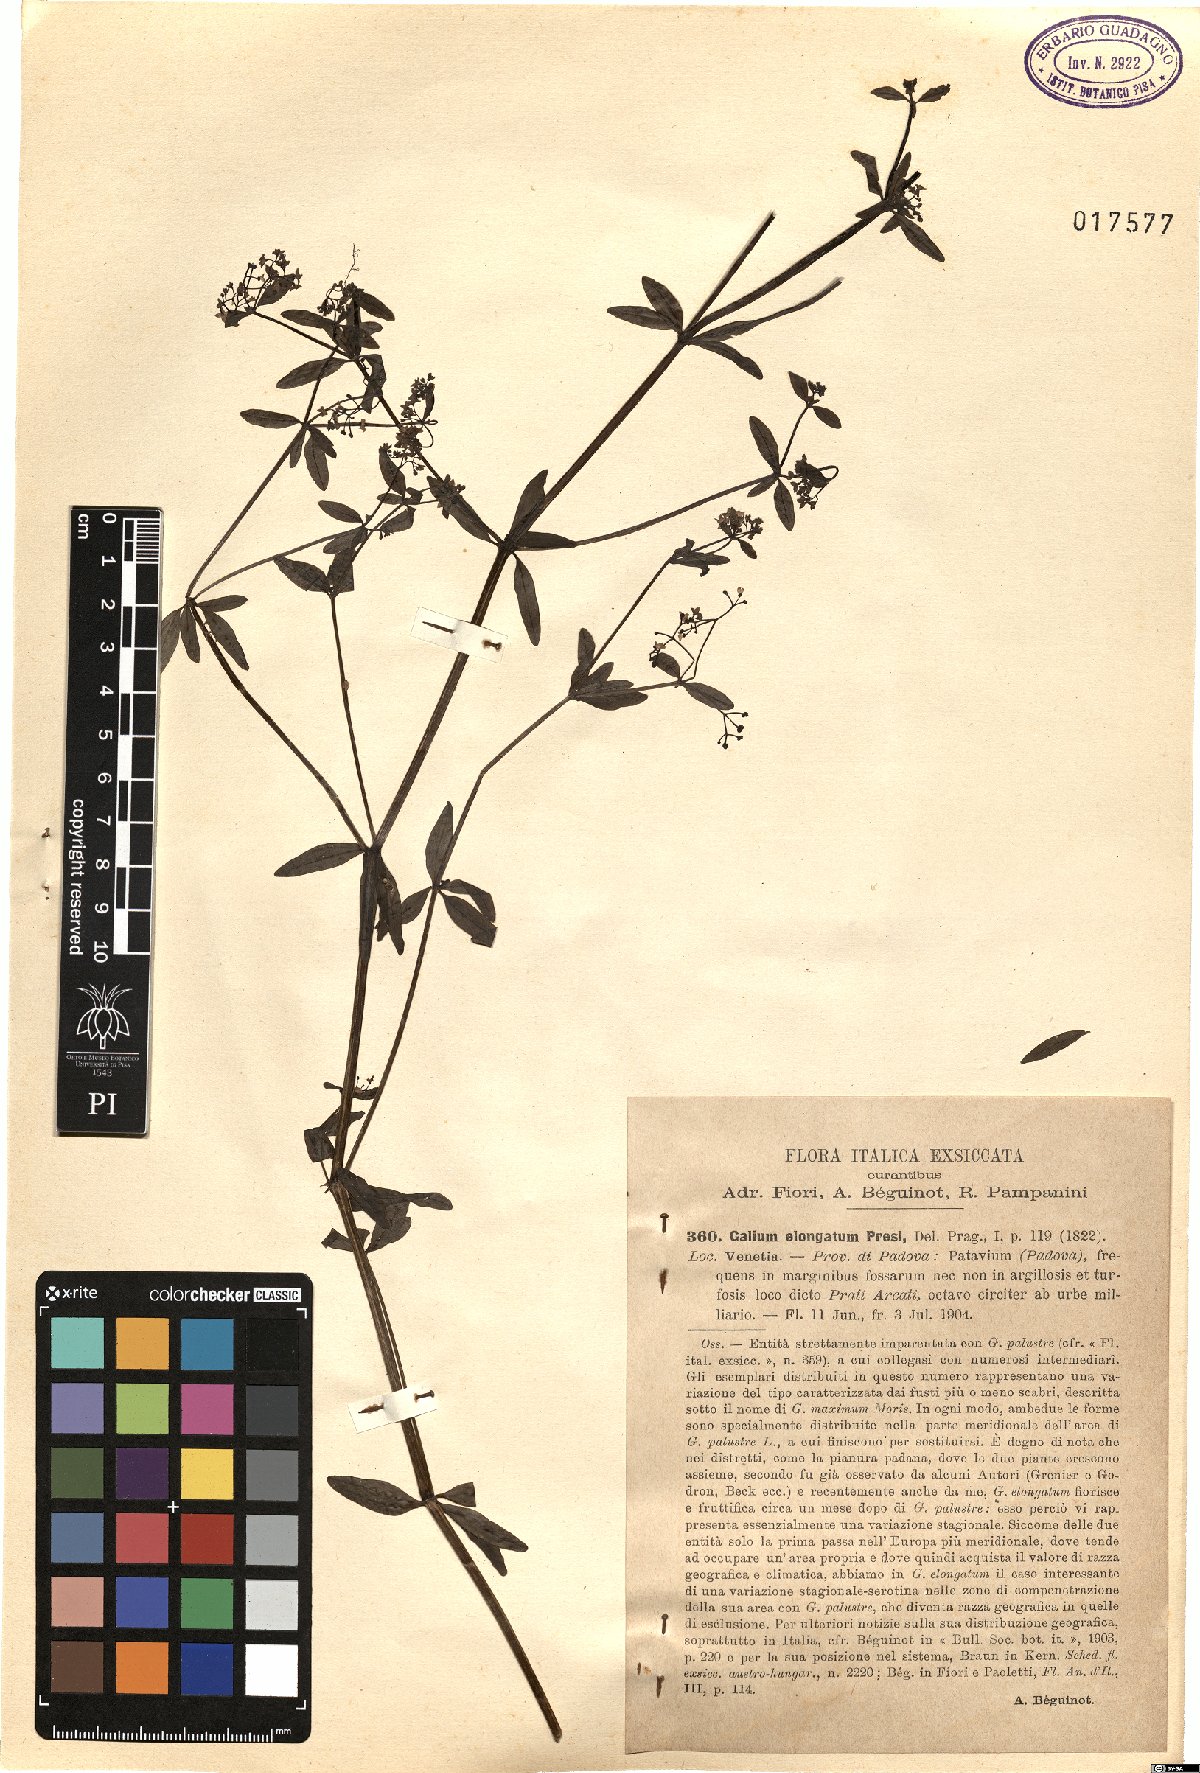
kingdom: Plantae
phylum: Tracheophyta
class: Magnoliopsida
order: Gentianales
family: Rubiaceae
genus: Galium
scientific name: Galium elongatum
